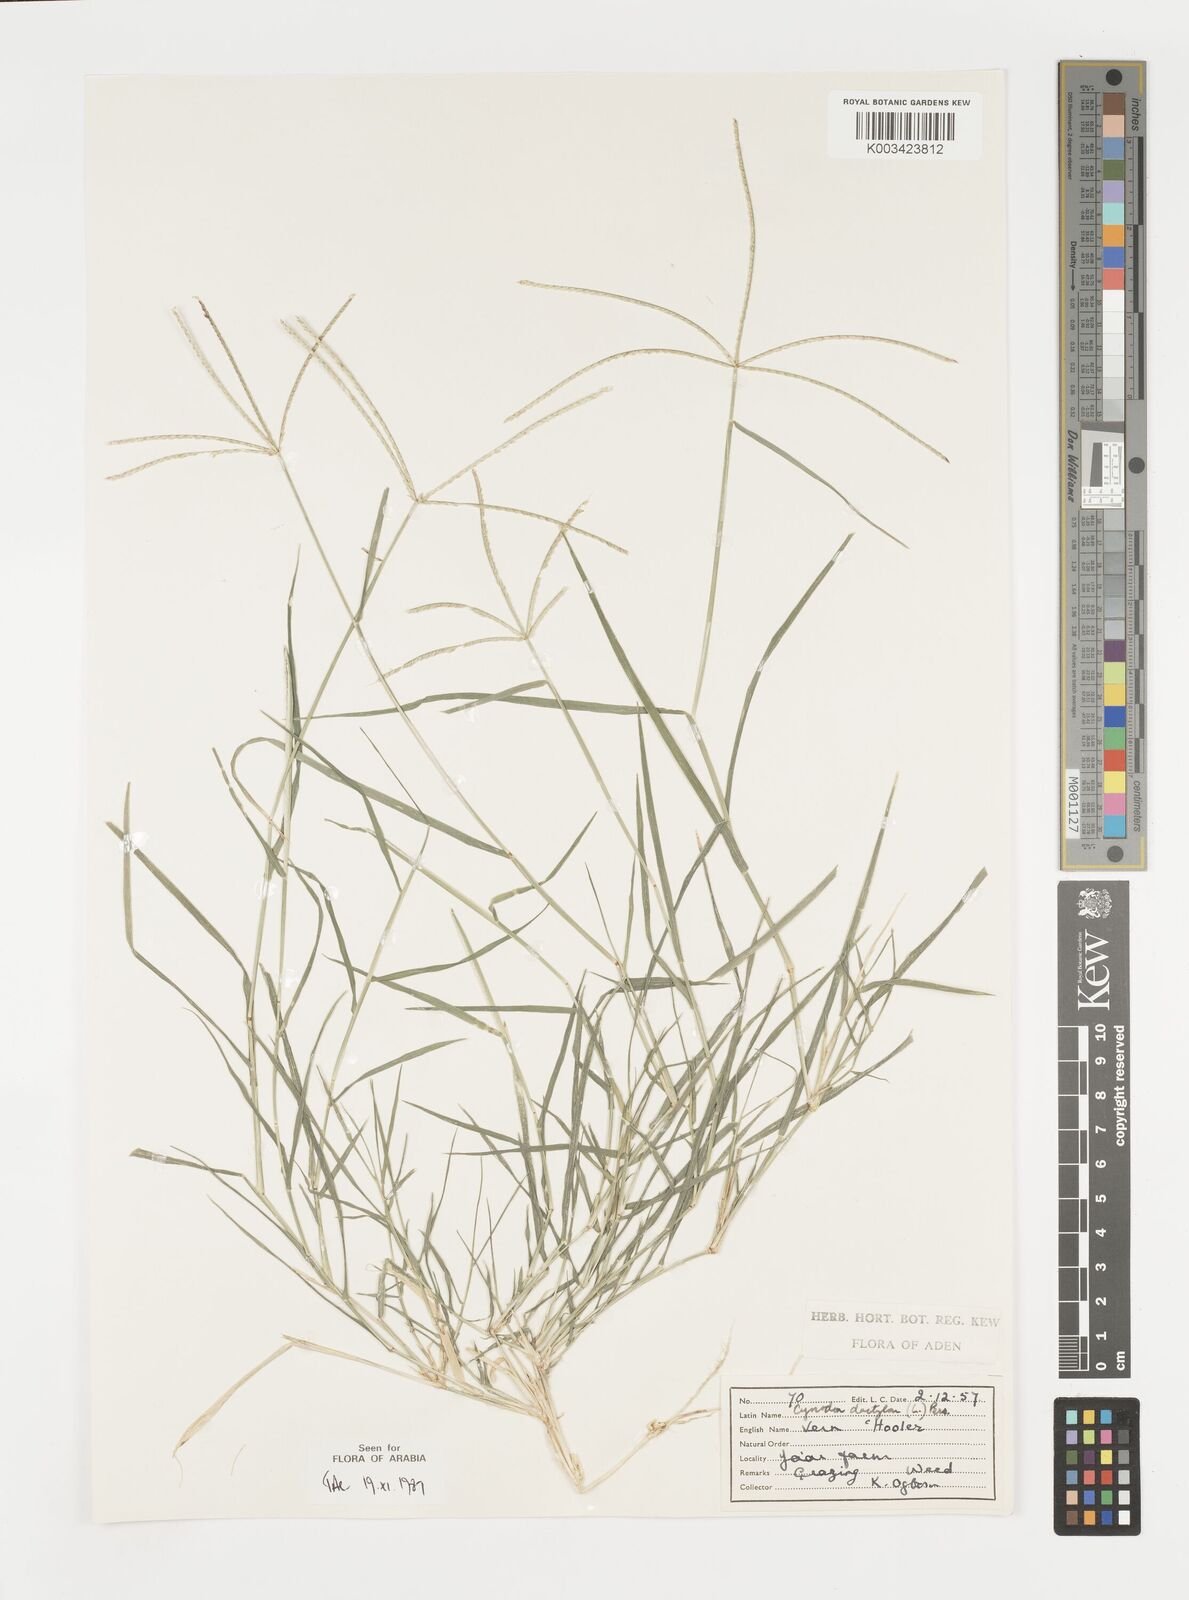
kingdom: Plantae
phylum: Tracheophyta
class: Liliopsida
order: Poales
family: Poaceae
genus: Cynodon
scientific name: Cynodon dactylon
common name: Bermuda grass
